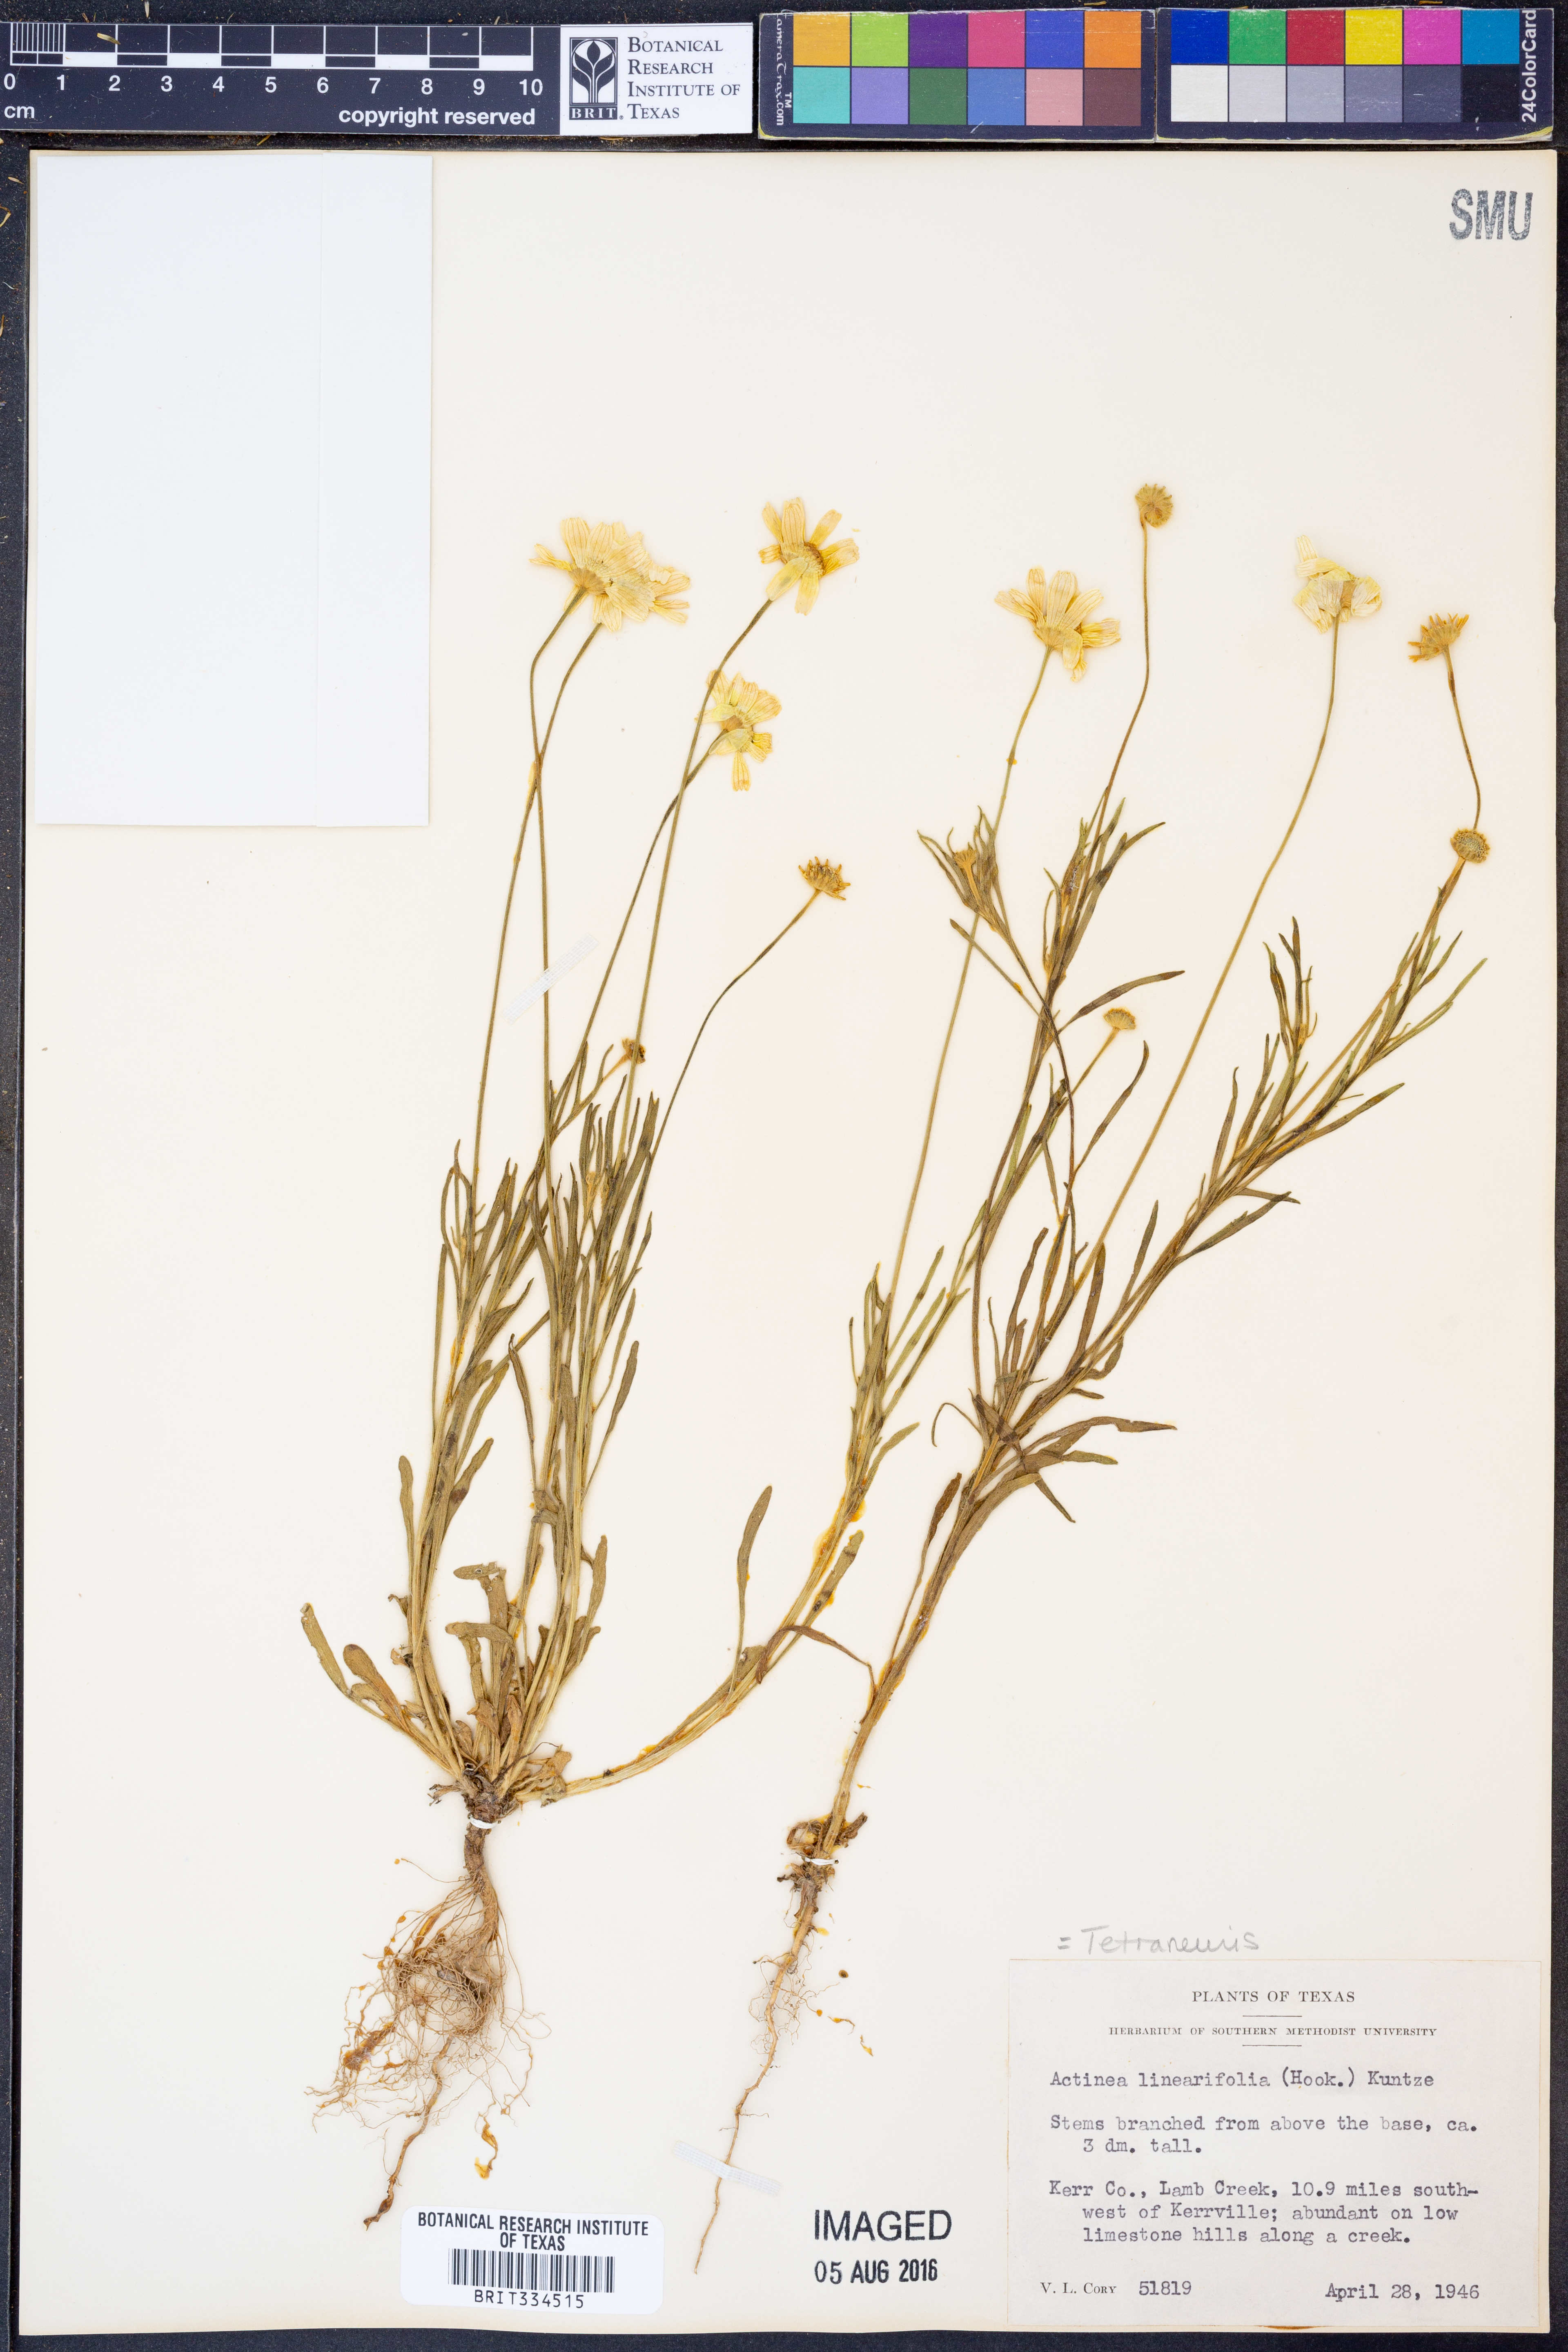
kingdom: Plantae
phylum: Tracheophyta
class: Magnoliopsida
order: Asterales
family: Asteraceae
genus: Tetraneuris
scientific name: Tetraneuris linearifolia
